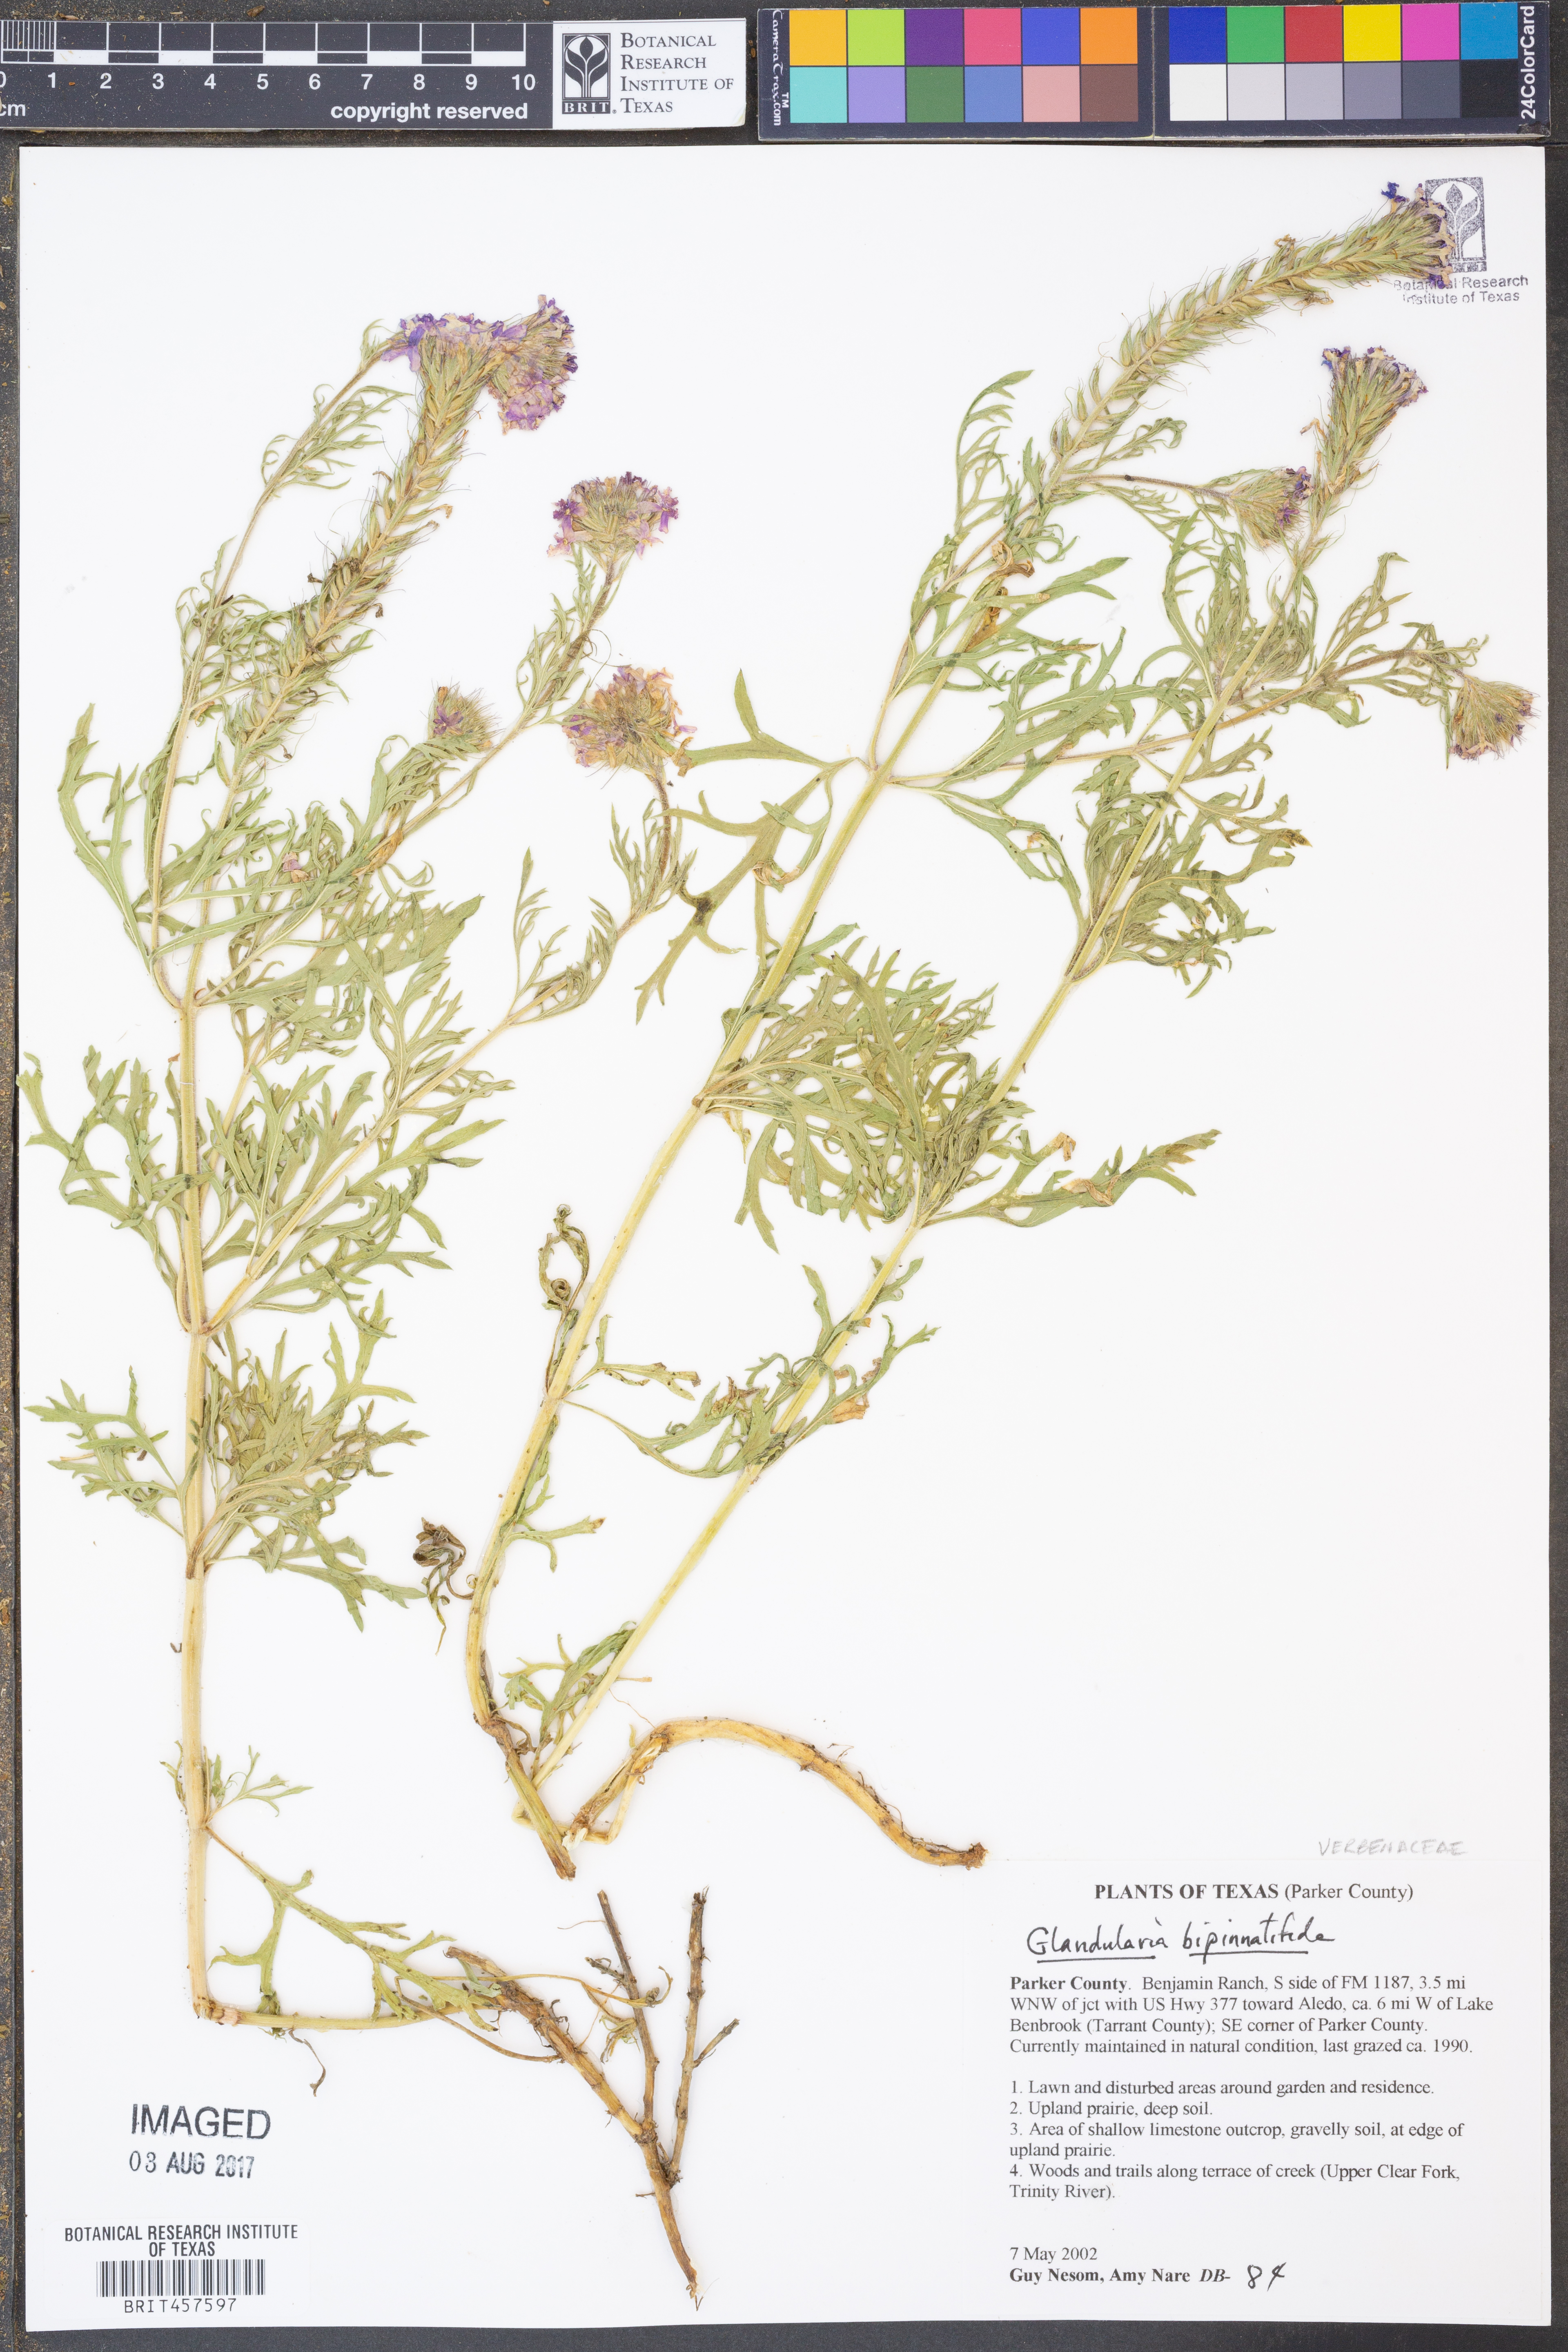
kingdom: Plantae
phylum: Tracheophyta
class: Magnoliopsida
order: Lamiales
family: Verbenaceae
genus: Verbena
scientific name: Verbena bipinnatifida
